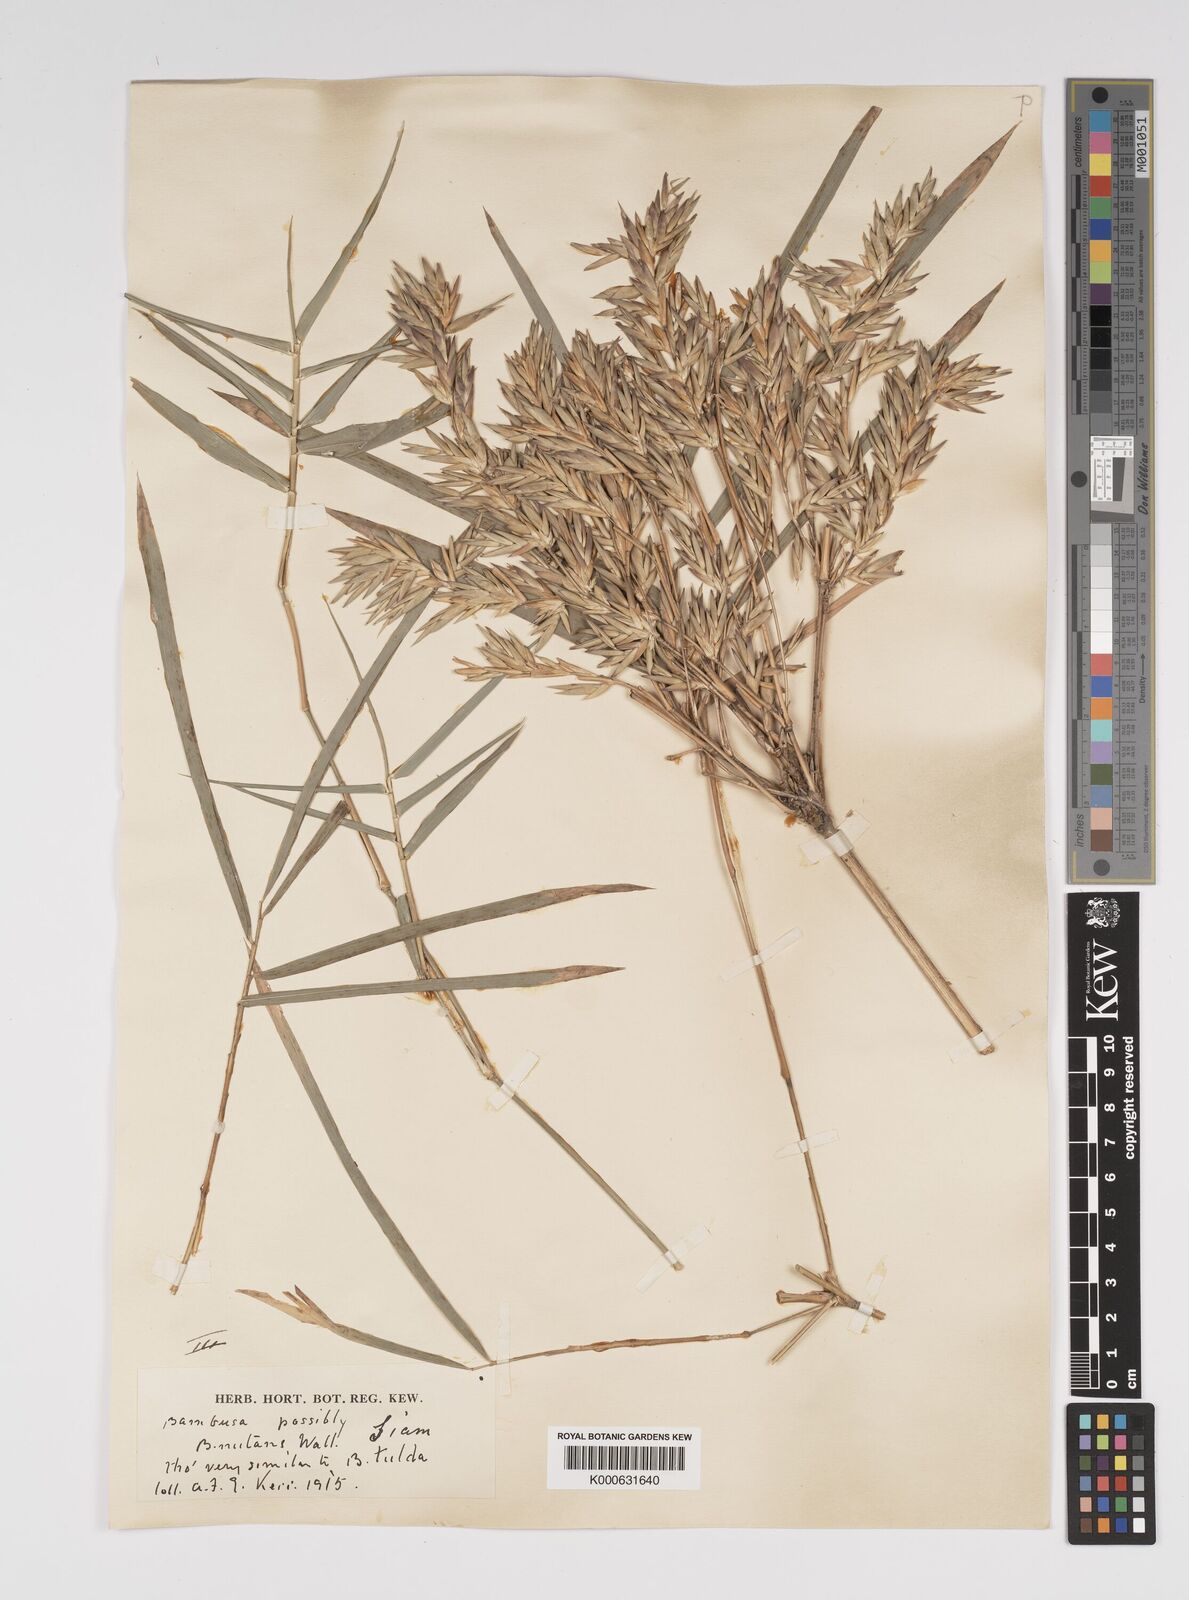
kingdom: Plantae
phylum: Tracheophyta
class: Liliopsida
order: Poales
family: Poaceae
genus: Bambusa
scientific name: Bambusa
